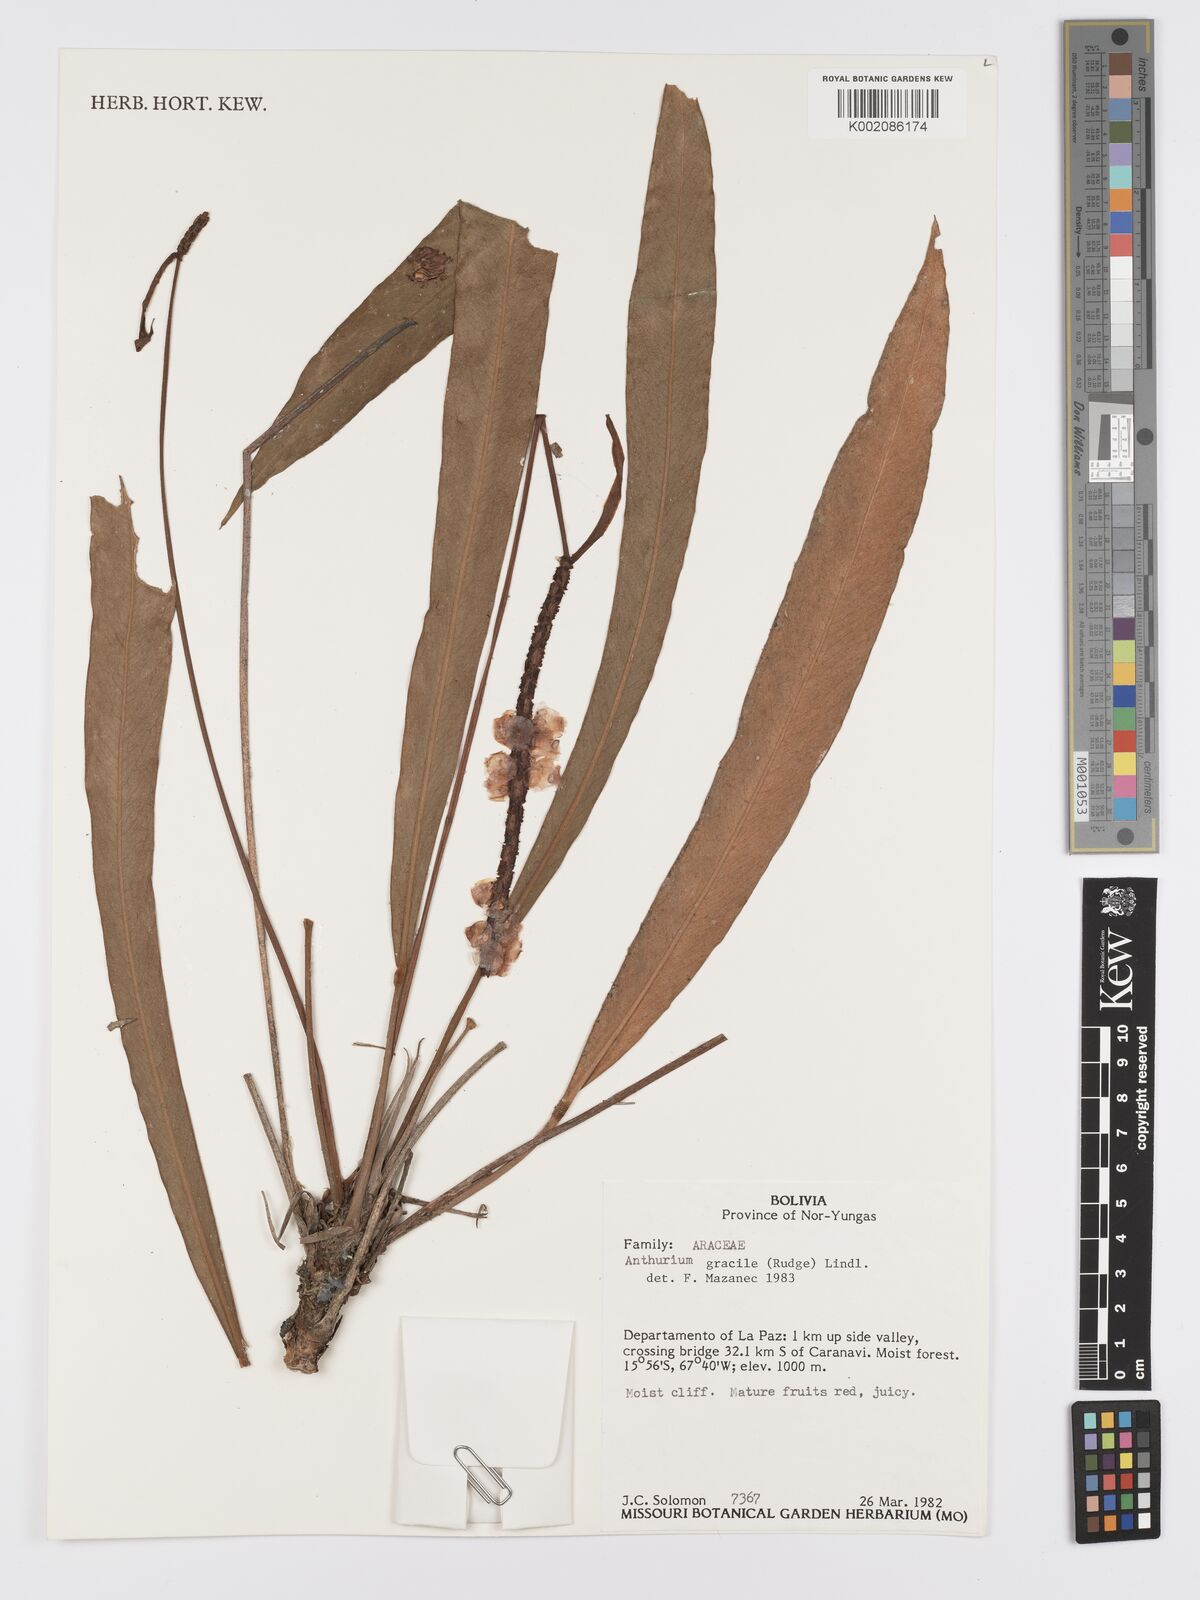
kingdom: Plantae
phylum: Tracheophyta
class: Liliopsida
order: Alismatales
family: Araceae
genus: Anthurium
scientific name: Anthurium gracile
